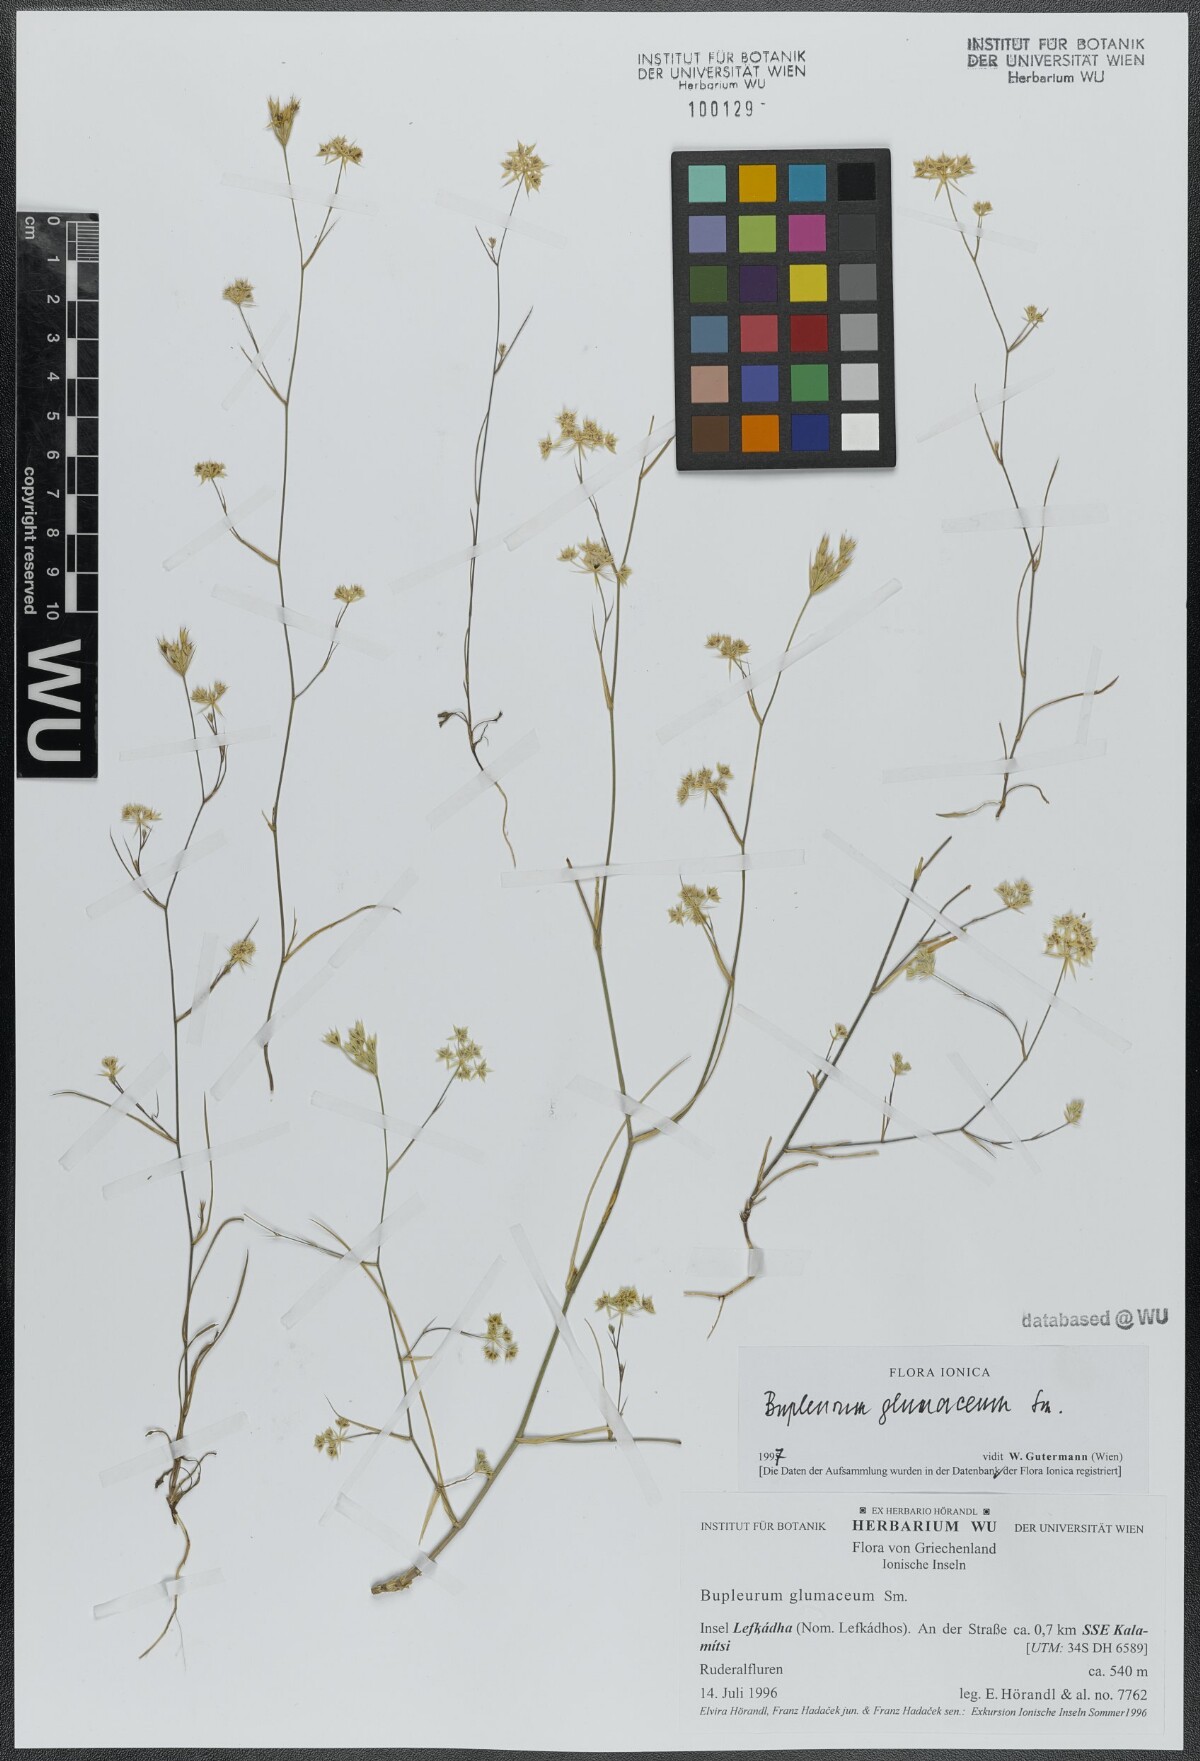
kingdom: Plantae
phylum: Tracheophyta
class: Magnoliopsida
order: Apiales
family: Apiaceae
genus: Bupleurum
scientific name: Bupleurum glumaceum
